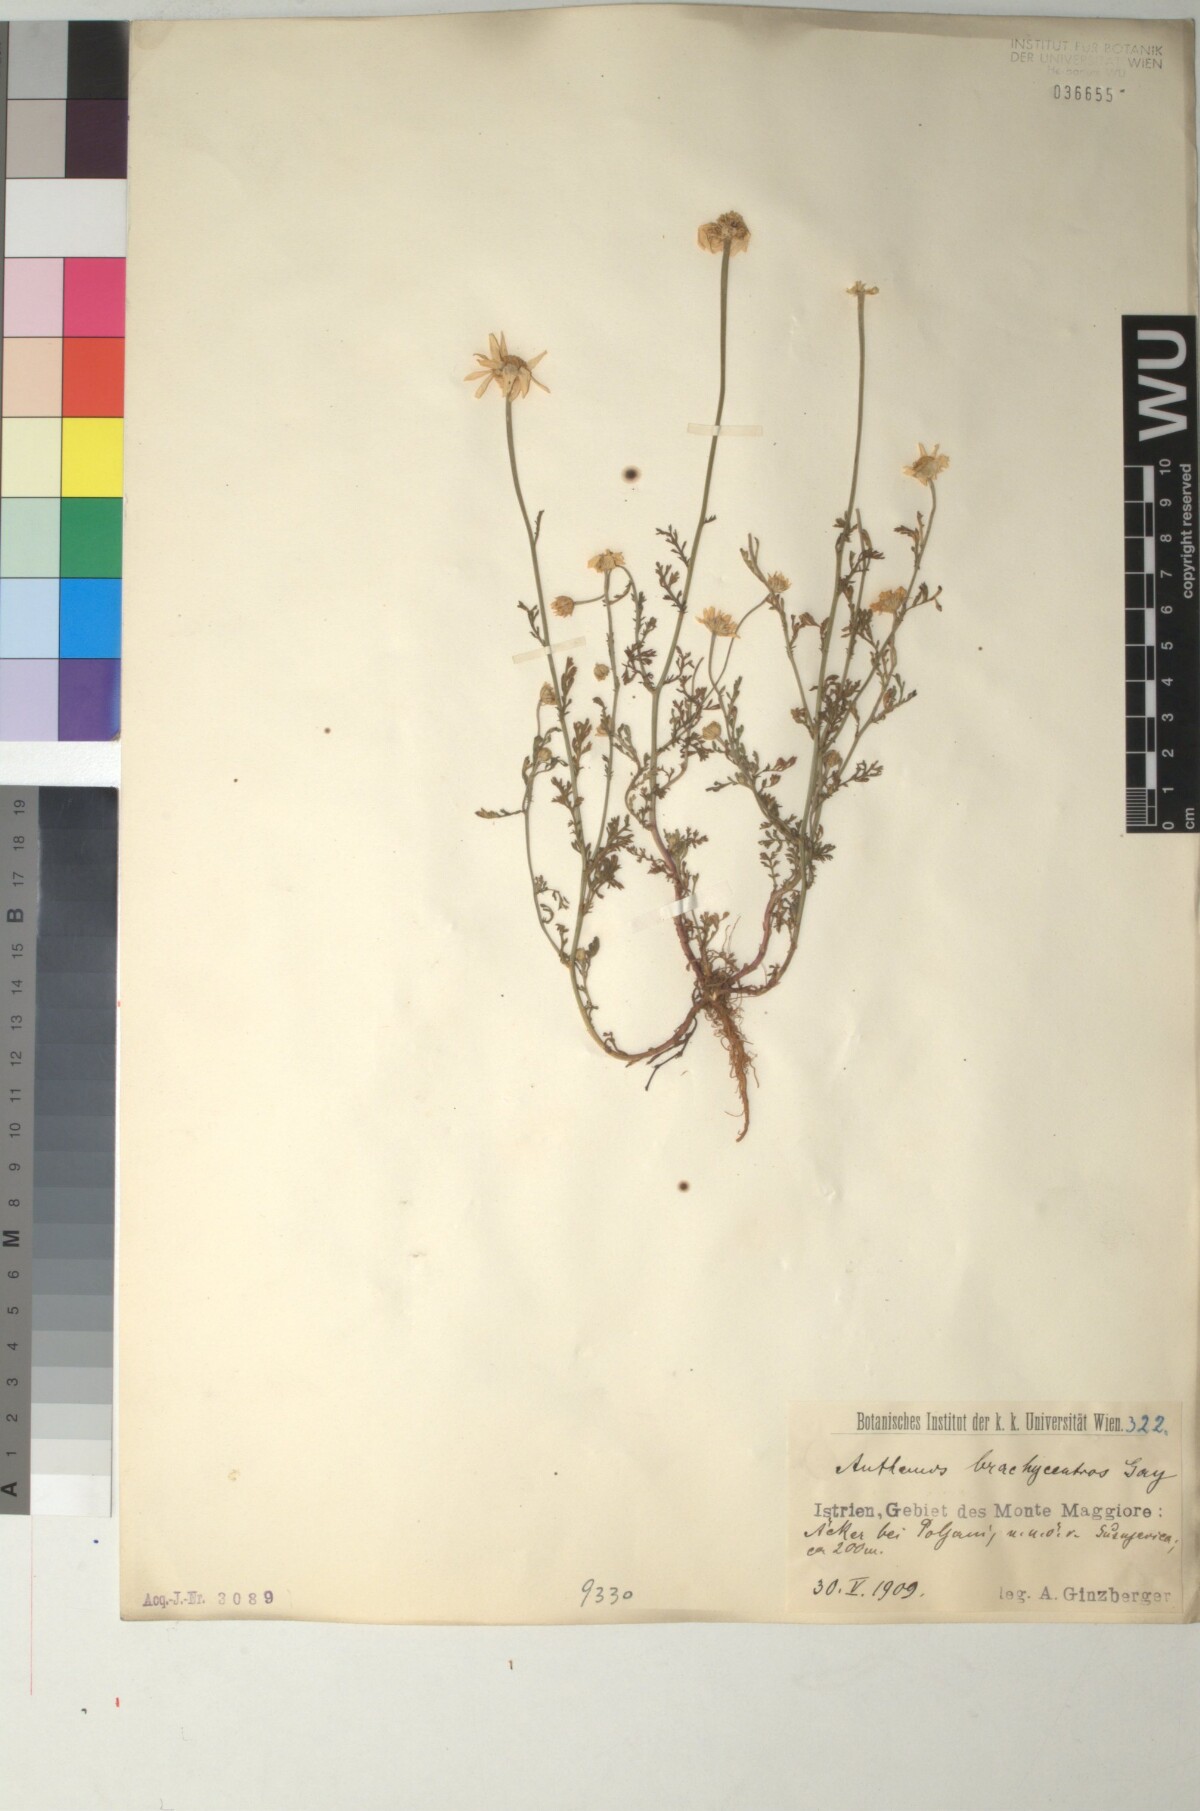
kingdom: Plantae
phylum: Tracheophyta
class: Magnoliopsida
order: Asterales
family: Asteraceae
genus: Cota
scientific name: Cota segetalis
